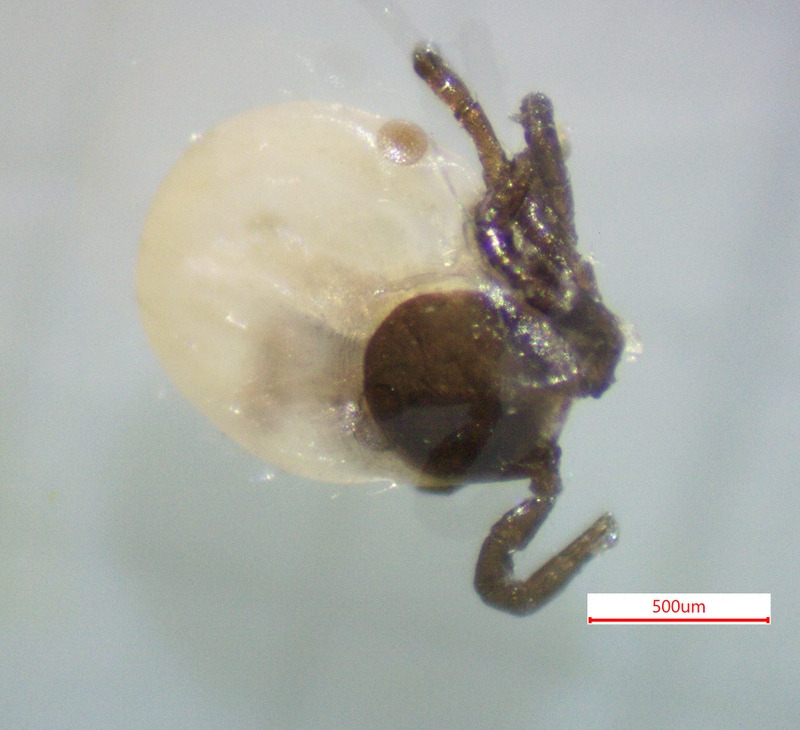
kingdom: Animalia
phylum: Arthropoda
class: Arachnida
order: Ixodida
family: Ixodidae
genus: Ixodes
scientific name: Ixodes ricinus
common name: Skovflåt
